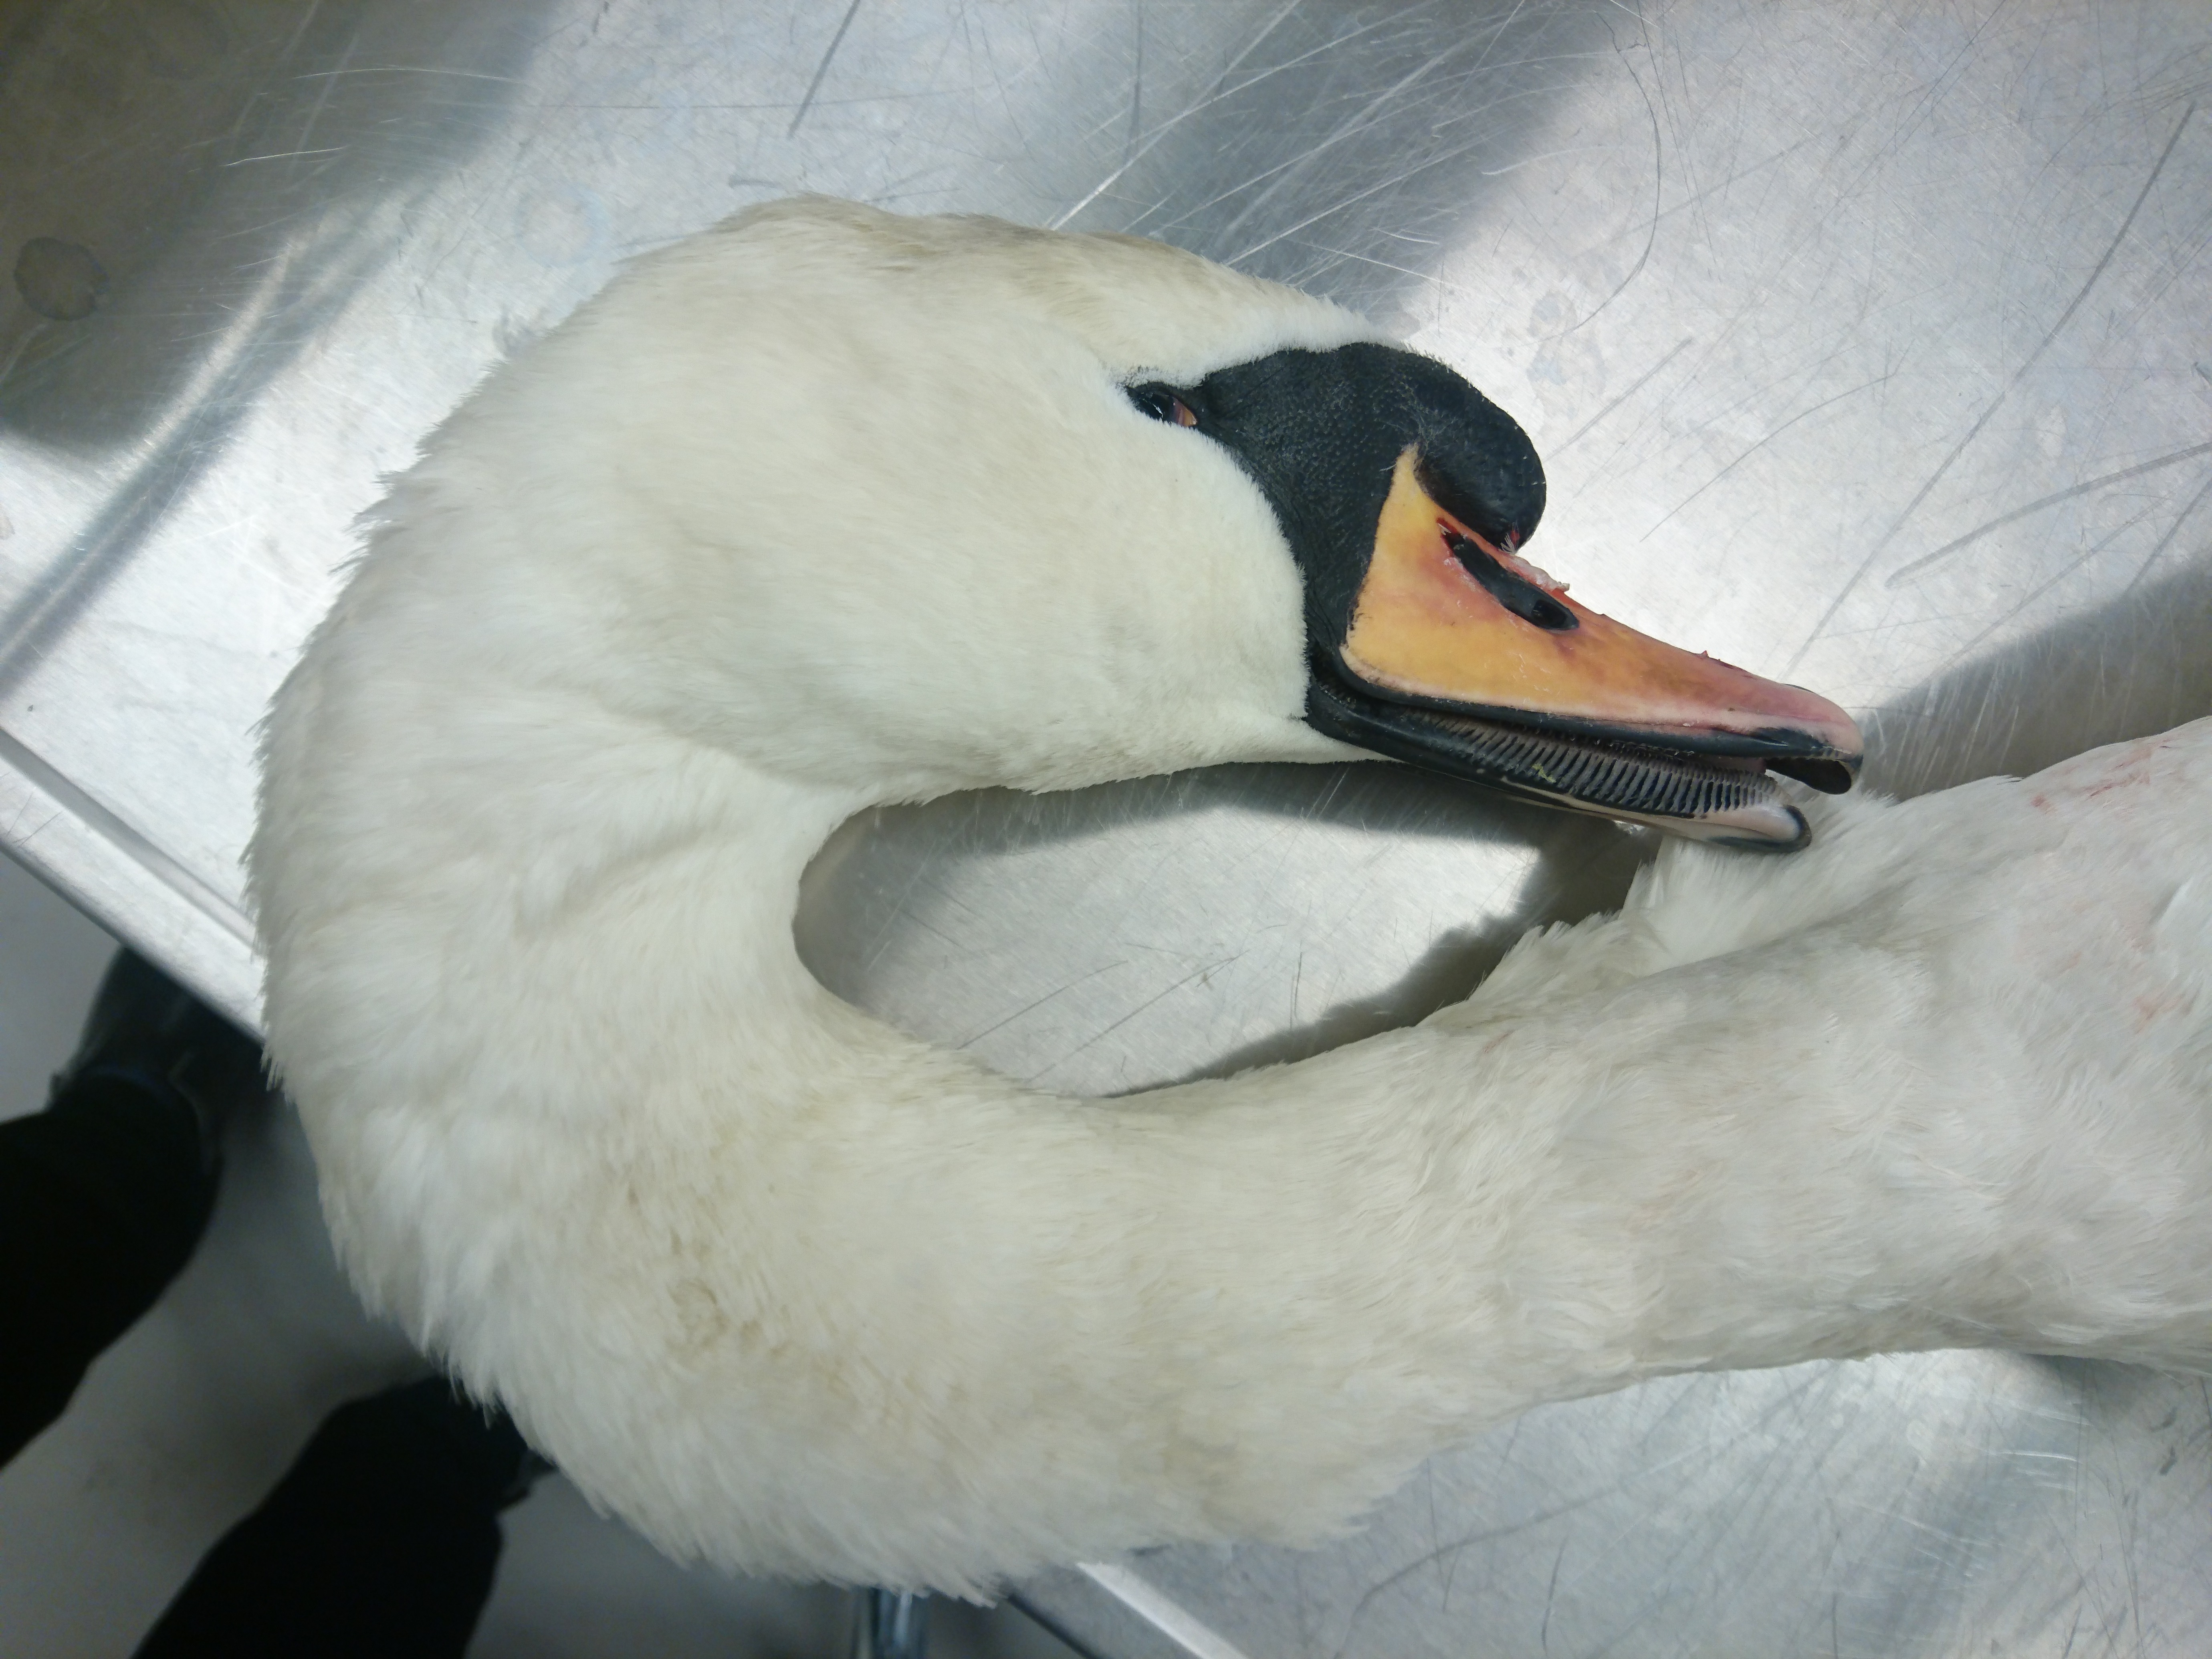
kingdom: Animalia
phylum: Chordata
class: Aves
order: Anseriformes
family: Anatidae
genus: Cygnus
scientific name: Cygnus olor
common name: Mute swan
